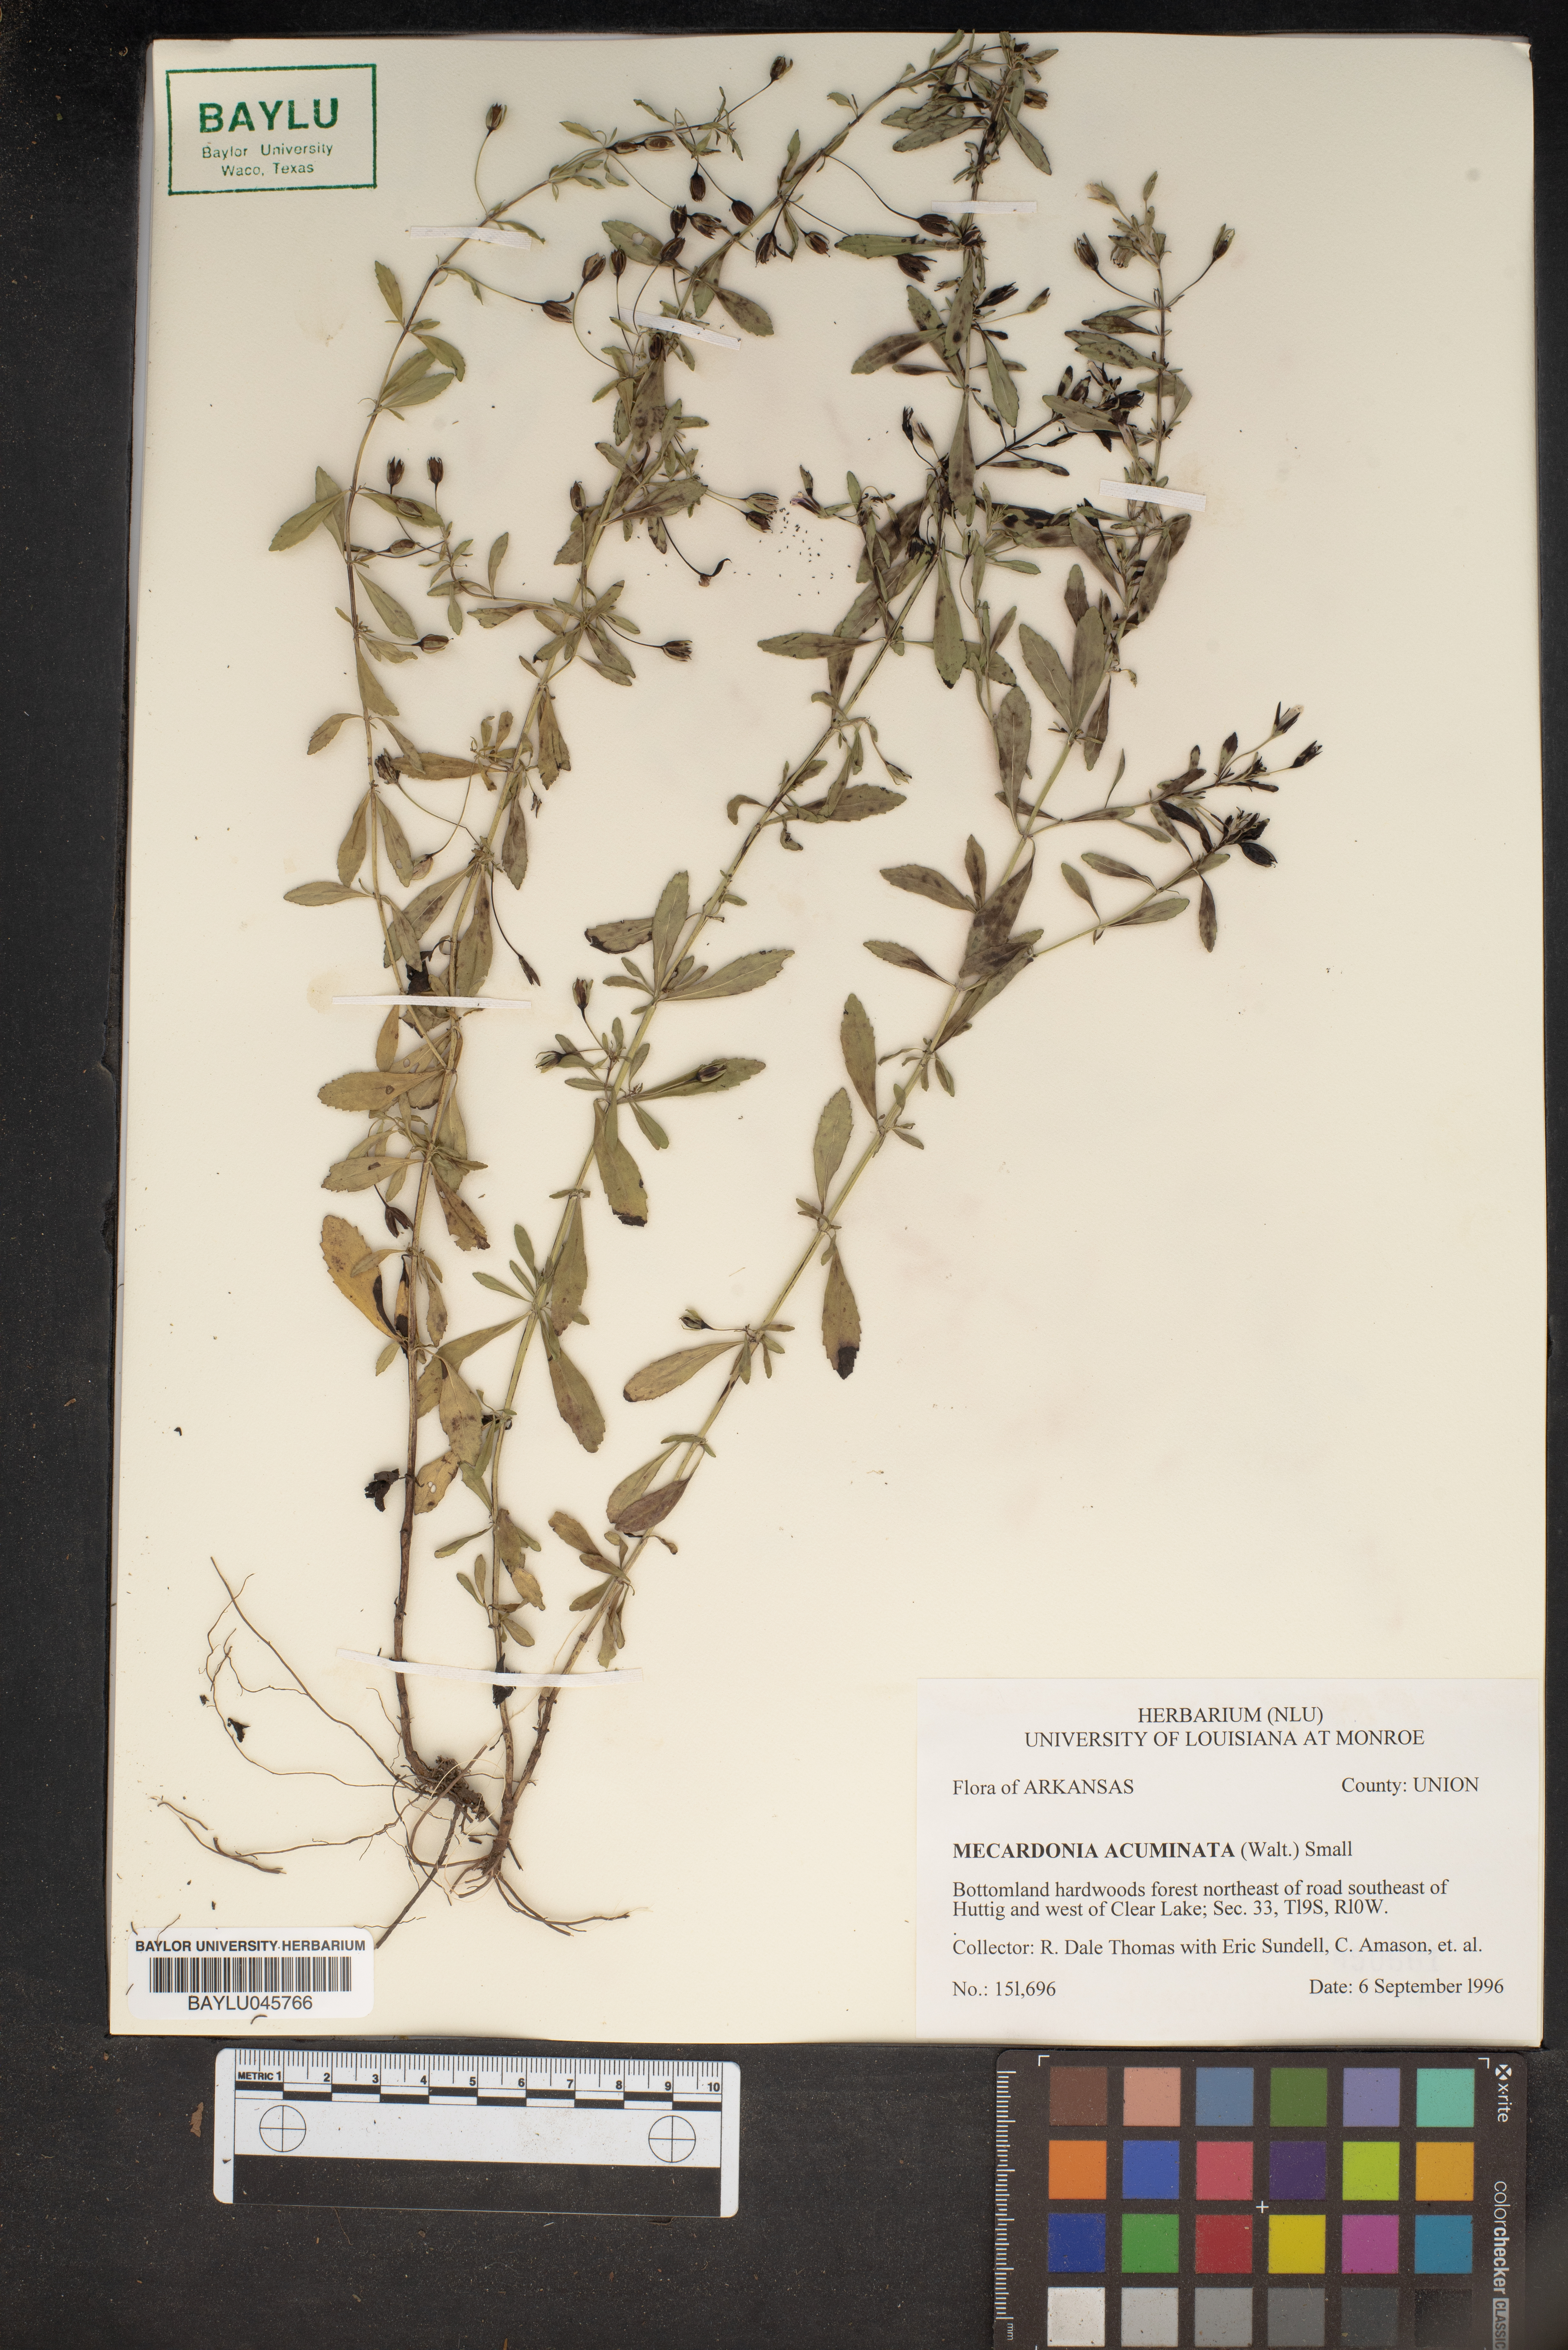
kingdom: Plantae
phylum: Tracheophyta
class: Magnoliopsida
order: Lamiales
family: Plantaginaceae
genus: Mecardonia
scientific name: Mecardonia acuminata
